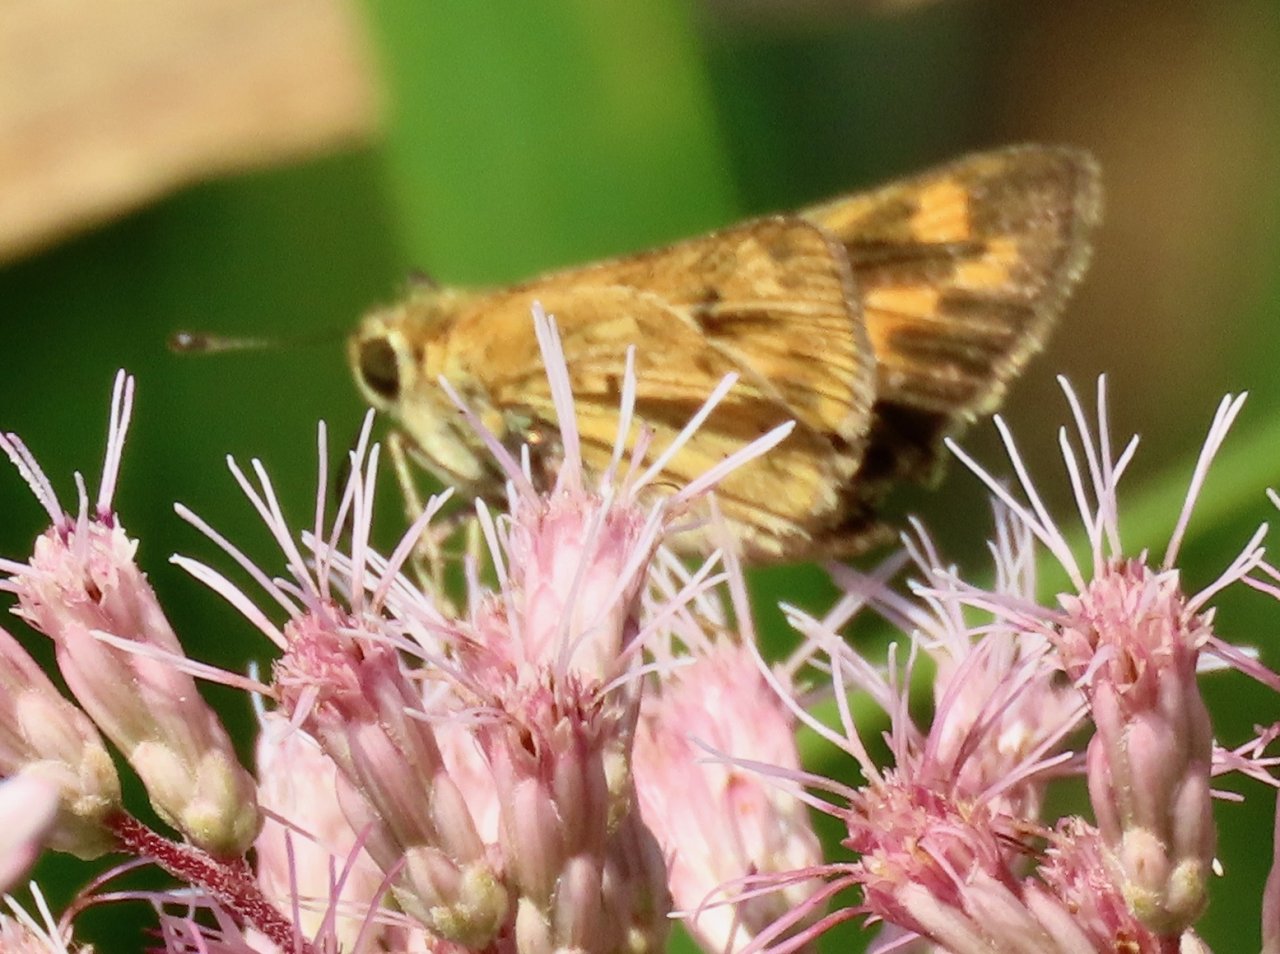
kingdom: Animalia
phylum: Arthropoda
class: Insecta
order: Lepidoptera
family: Hesperiidae
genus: Hylephila
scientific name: Hylephila phyleus
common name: Fiery Skipper
